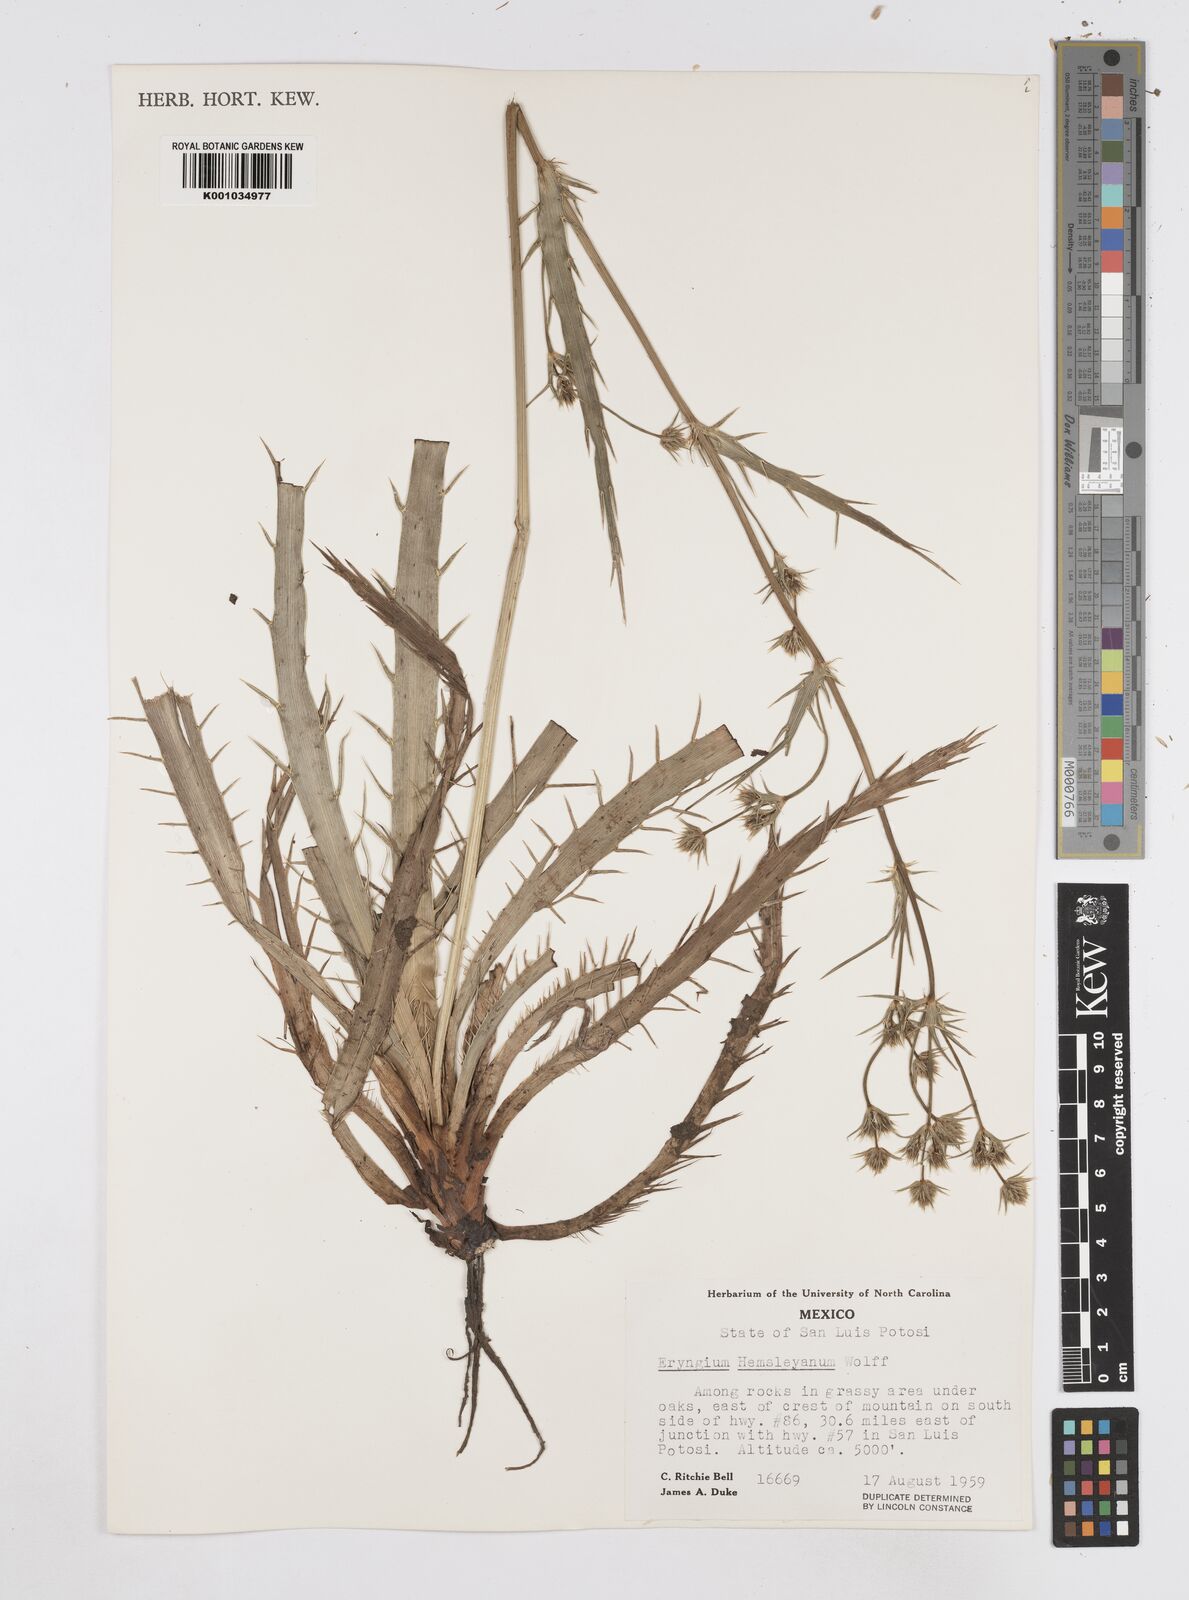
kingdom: Plantae
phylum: Tracheophyta
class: Magnoliopsida
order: Apiales
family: Apiaceae
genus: Eryngium
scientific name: Eryngium hemsleyanum
